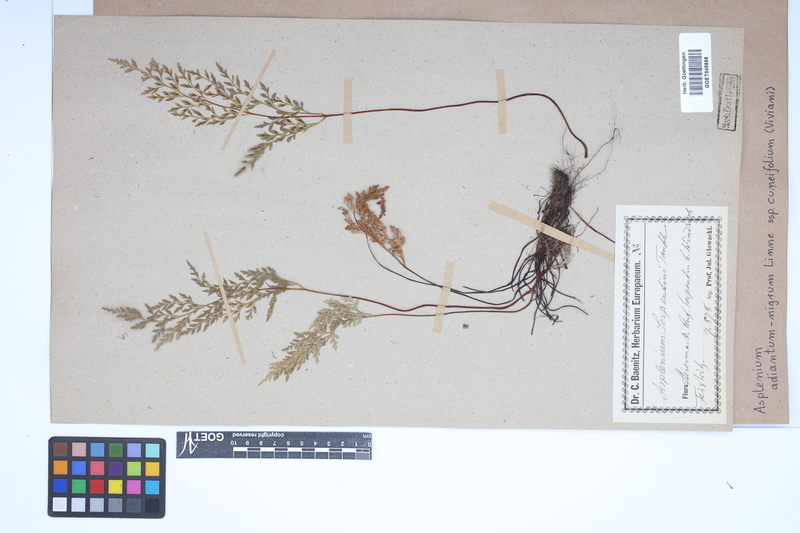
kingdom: Plantae
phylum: Tracheophyta
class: Polypodiopsida
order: Polypodiales
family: Aspleniaceae
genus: Asplenium
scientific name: Asplenium cuneifolium
